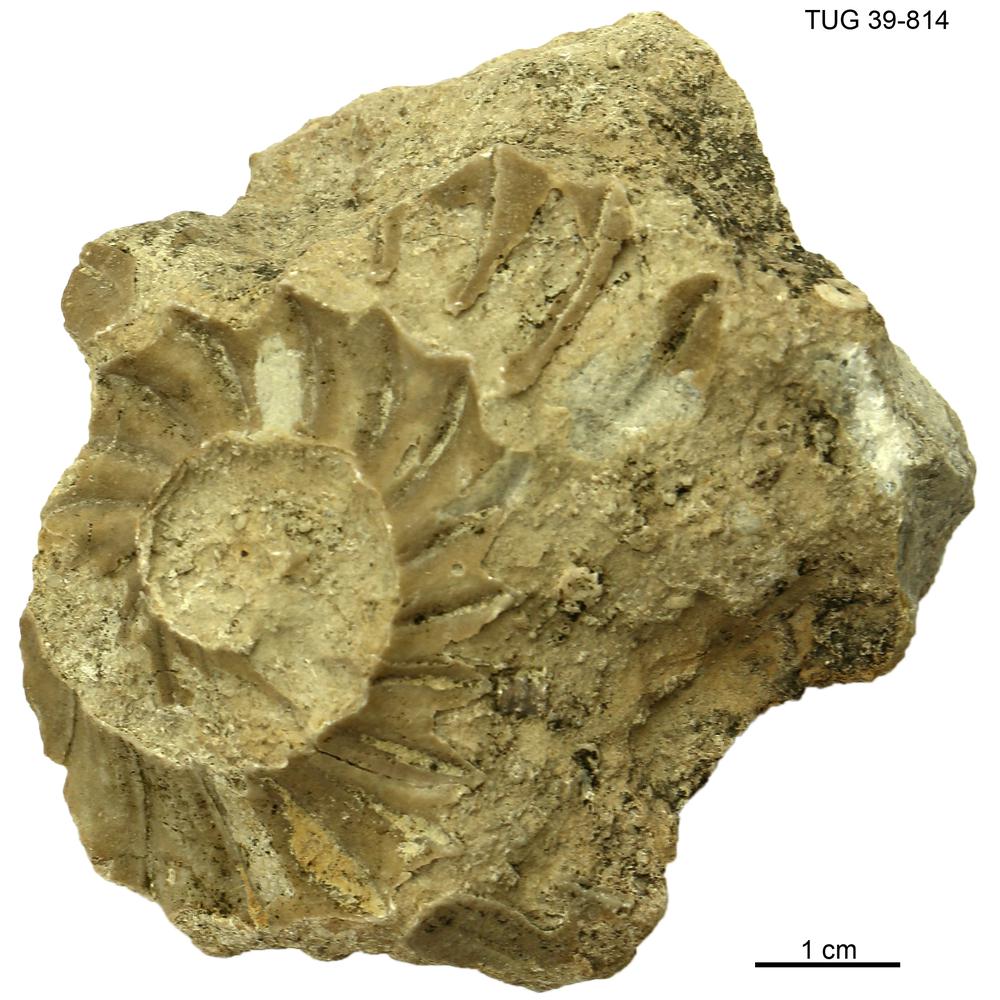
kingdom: Animalia
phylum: Mollusca
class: Cephalopoda
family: Trocholitidae
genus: Discoceras
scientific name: Discoceras antiquissimus
